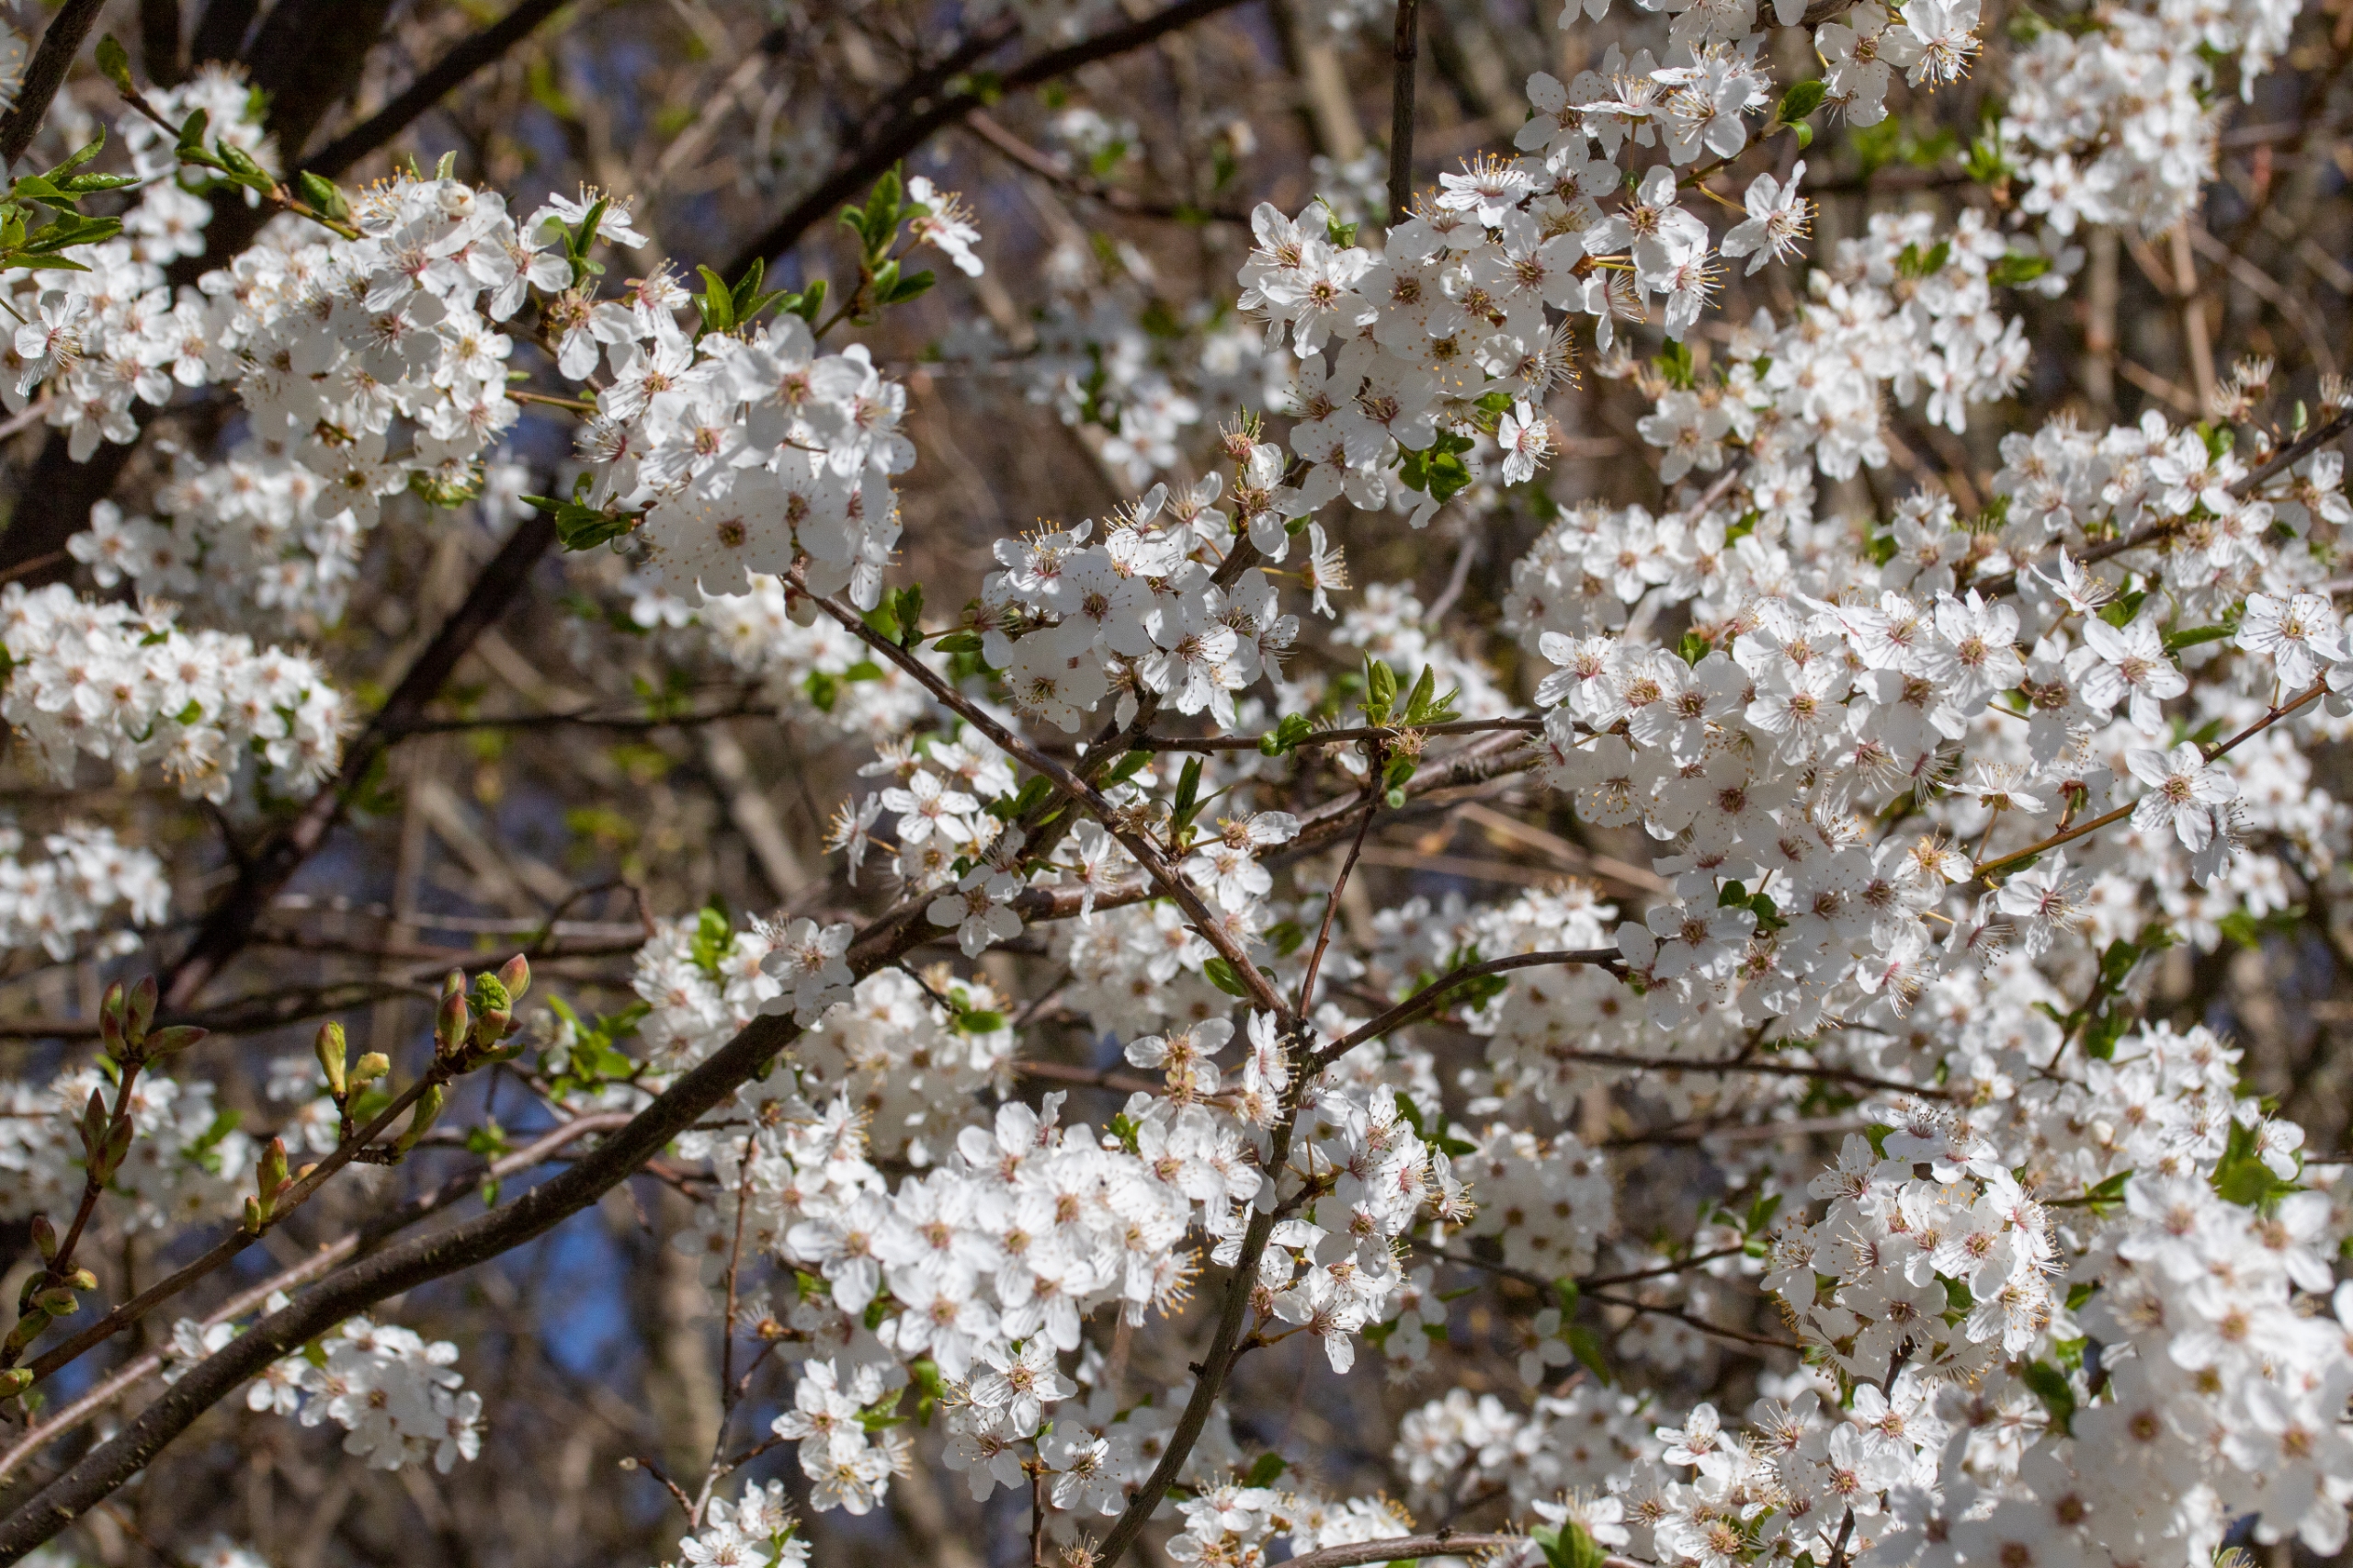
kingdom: Plantae
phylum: Tracheophyta
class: Magnoliopsida
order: Rosales
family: Rosaceae
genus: Prunus
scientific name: Prunus cerasifera
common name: Mirabel
